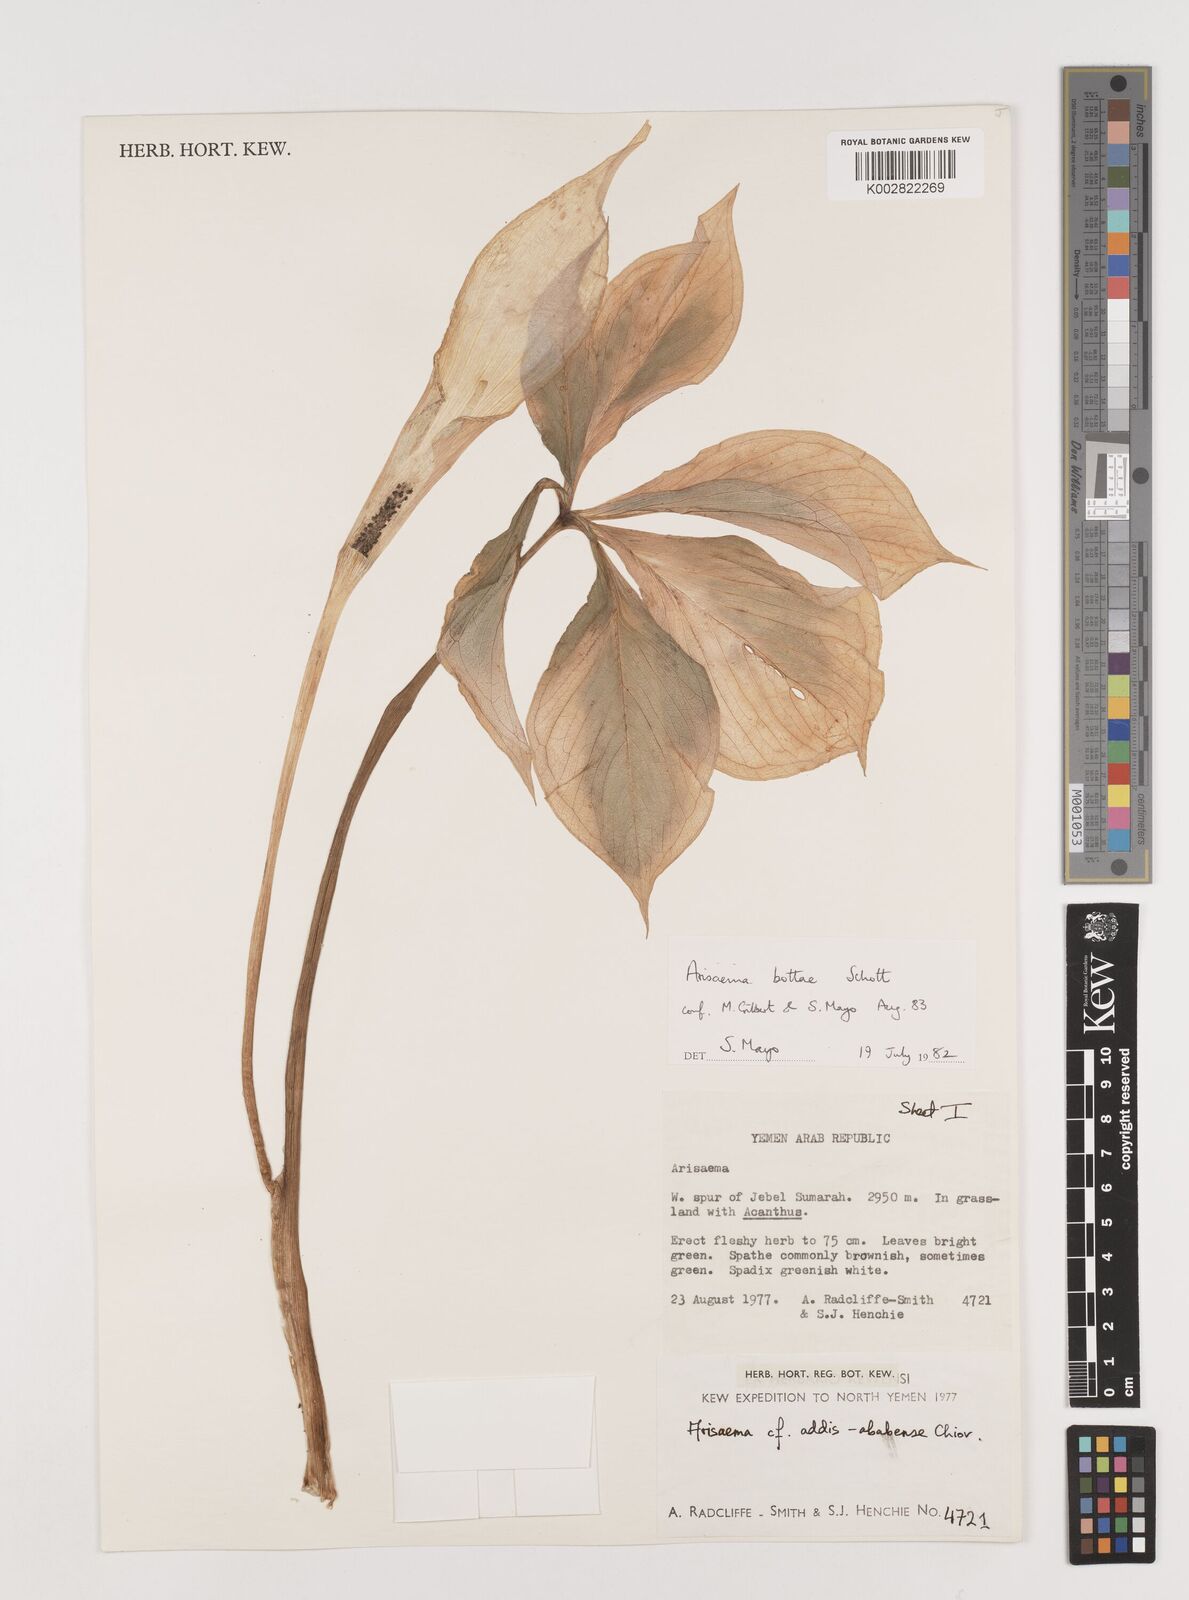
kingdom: Plantae
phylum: Tracheophyta
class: Liliopsida
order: Alismatales
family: Araceae
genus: Arisaema
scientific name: Arisaema bottae
